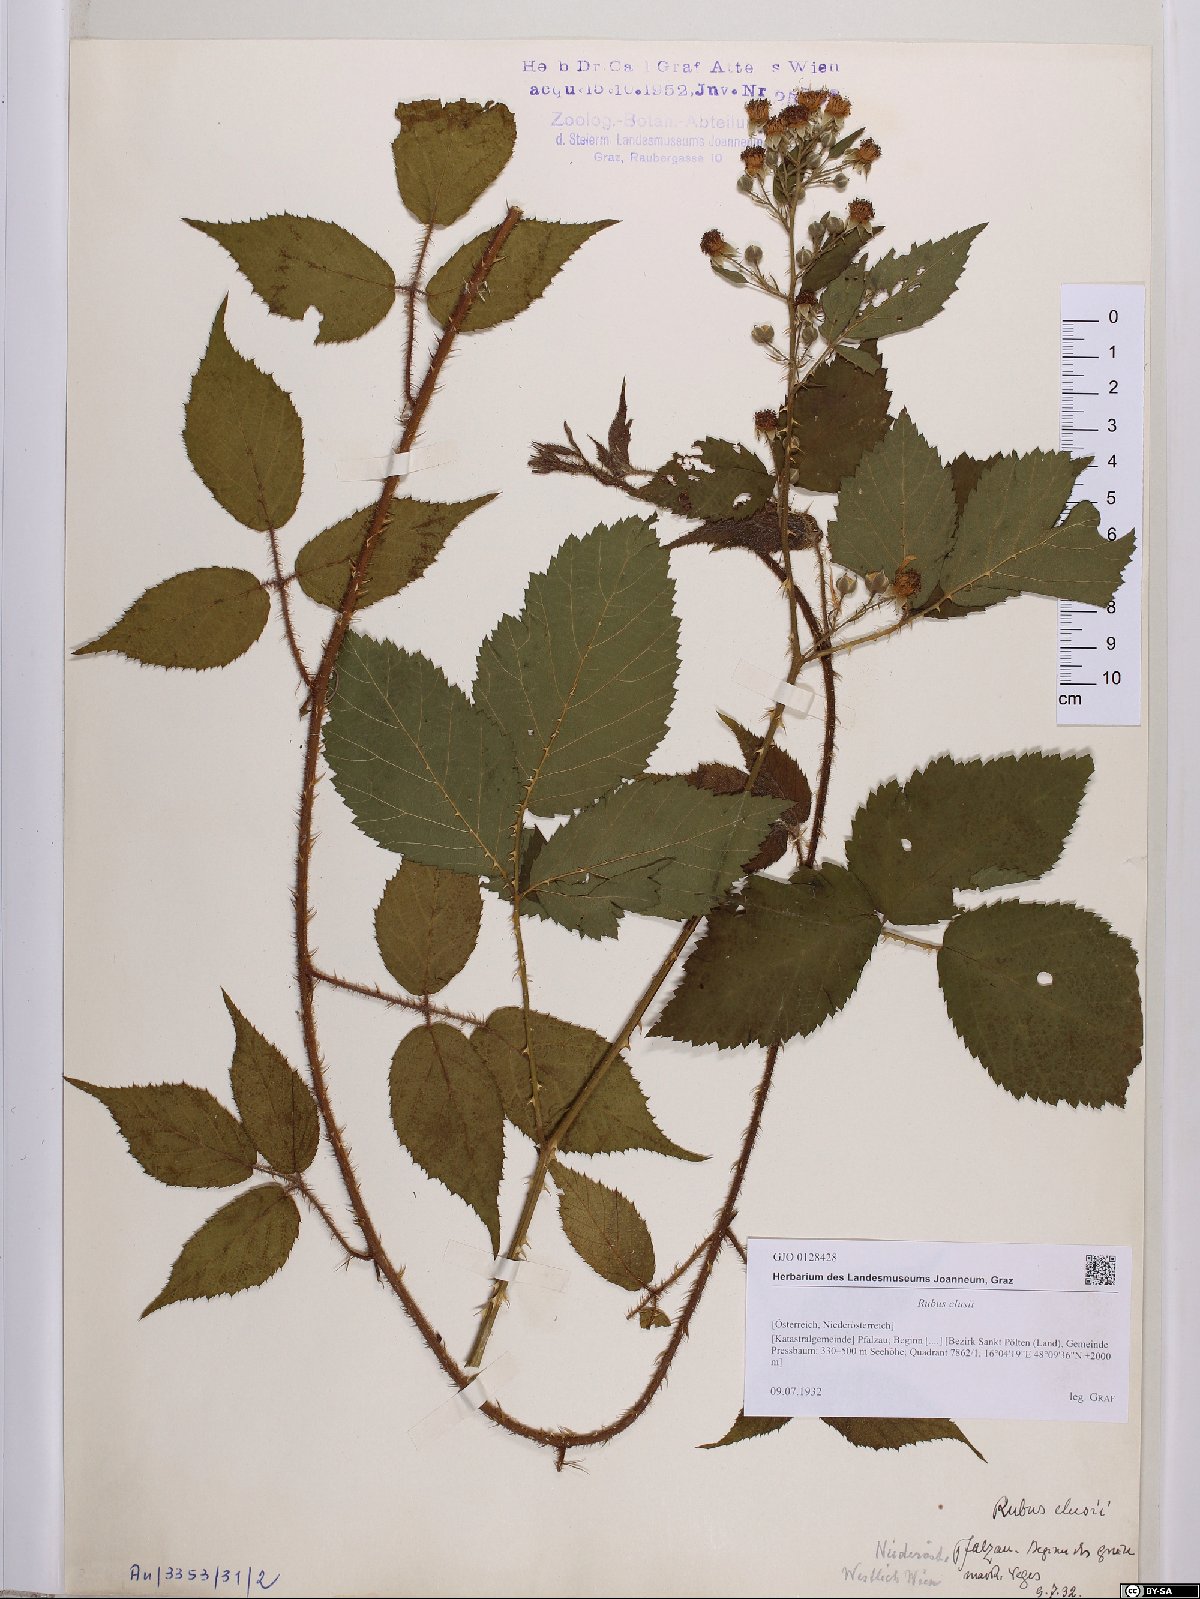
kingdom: Plantae
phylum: Tracheophyta
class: Magnoliopsida
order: Rosales
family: Rosaceae
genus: Rubus
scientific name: Rubus clusii
